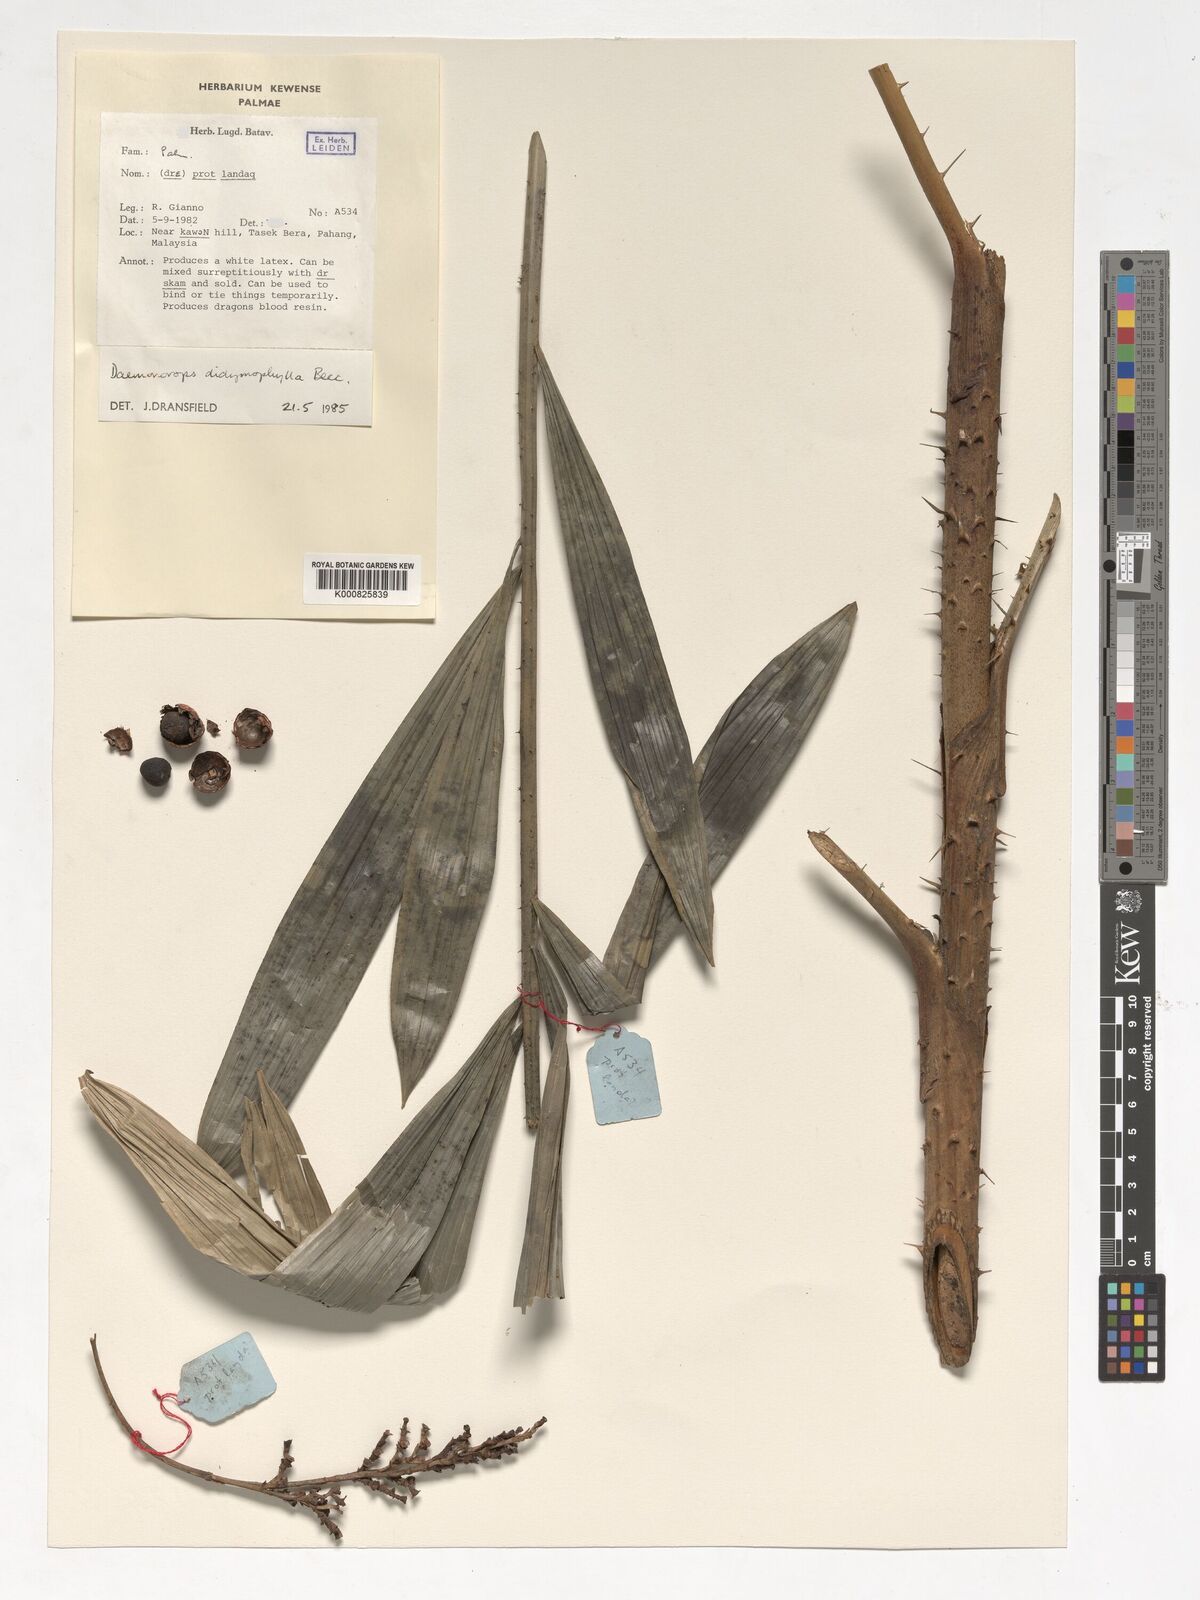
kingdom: Plantae
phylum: Tracheophyta
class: Liliopsida
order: Arecales
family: Arecaceae
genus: Calamus
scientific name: Calamus gracilipes
